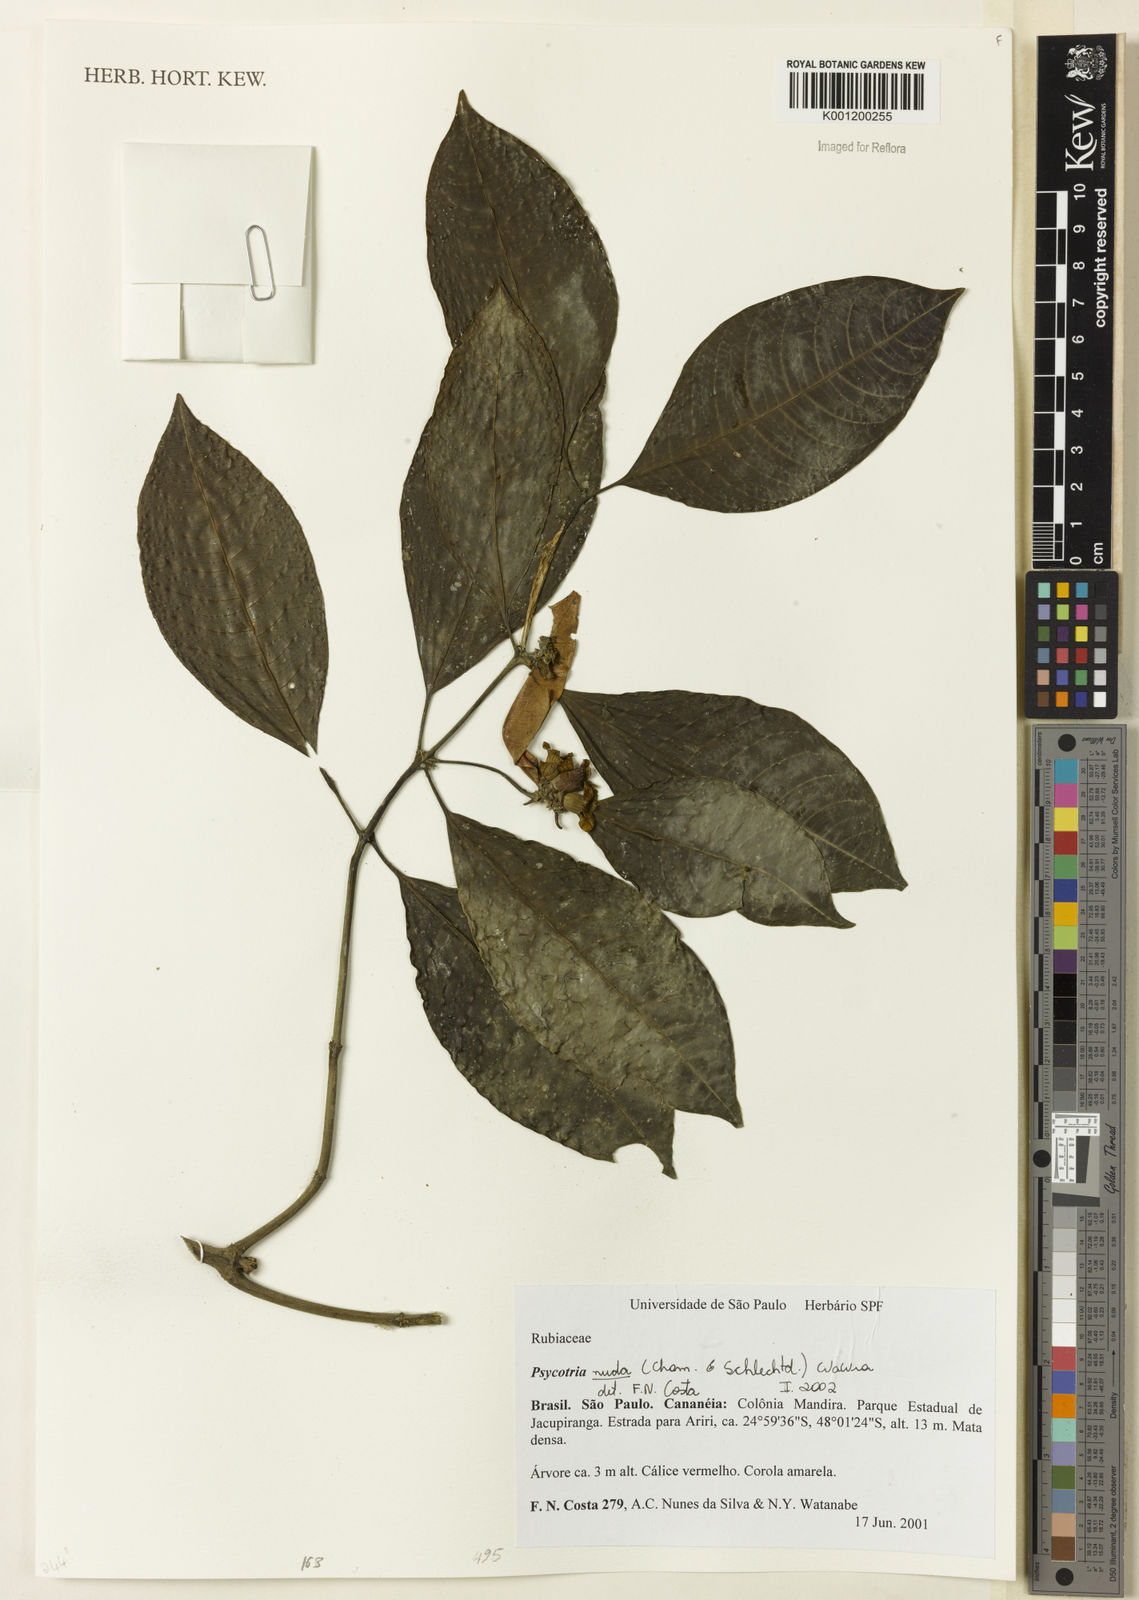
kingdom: Plantae
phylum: Tracheophyta
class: Magnoliopsida
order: Gentianales
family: Rubiaceae
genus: Psychotria
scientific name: Psychotria nuda
